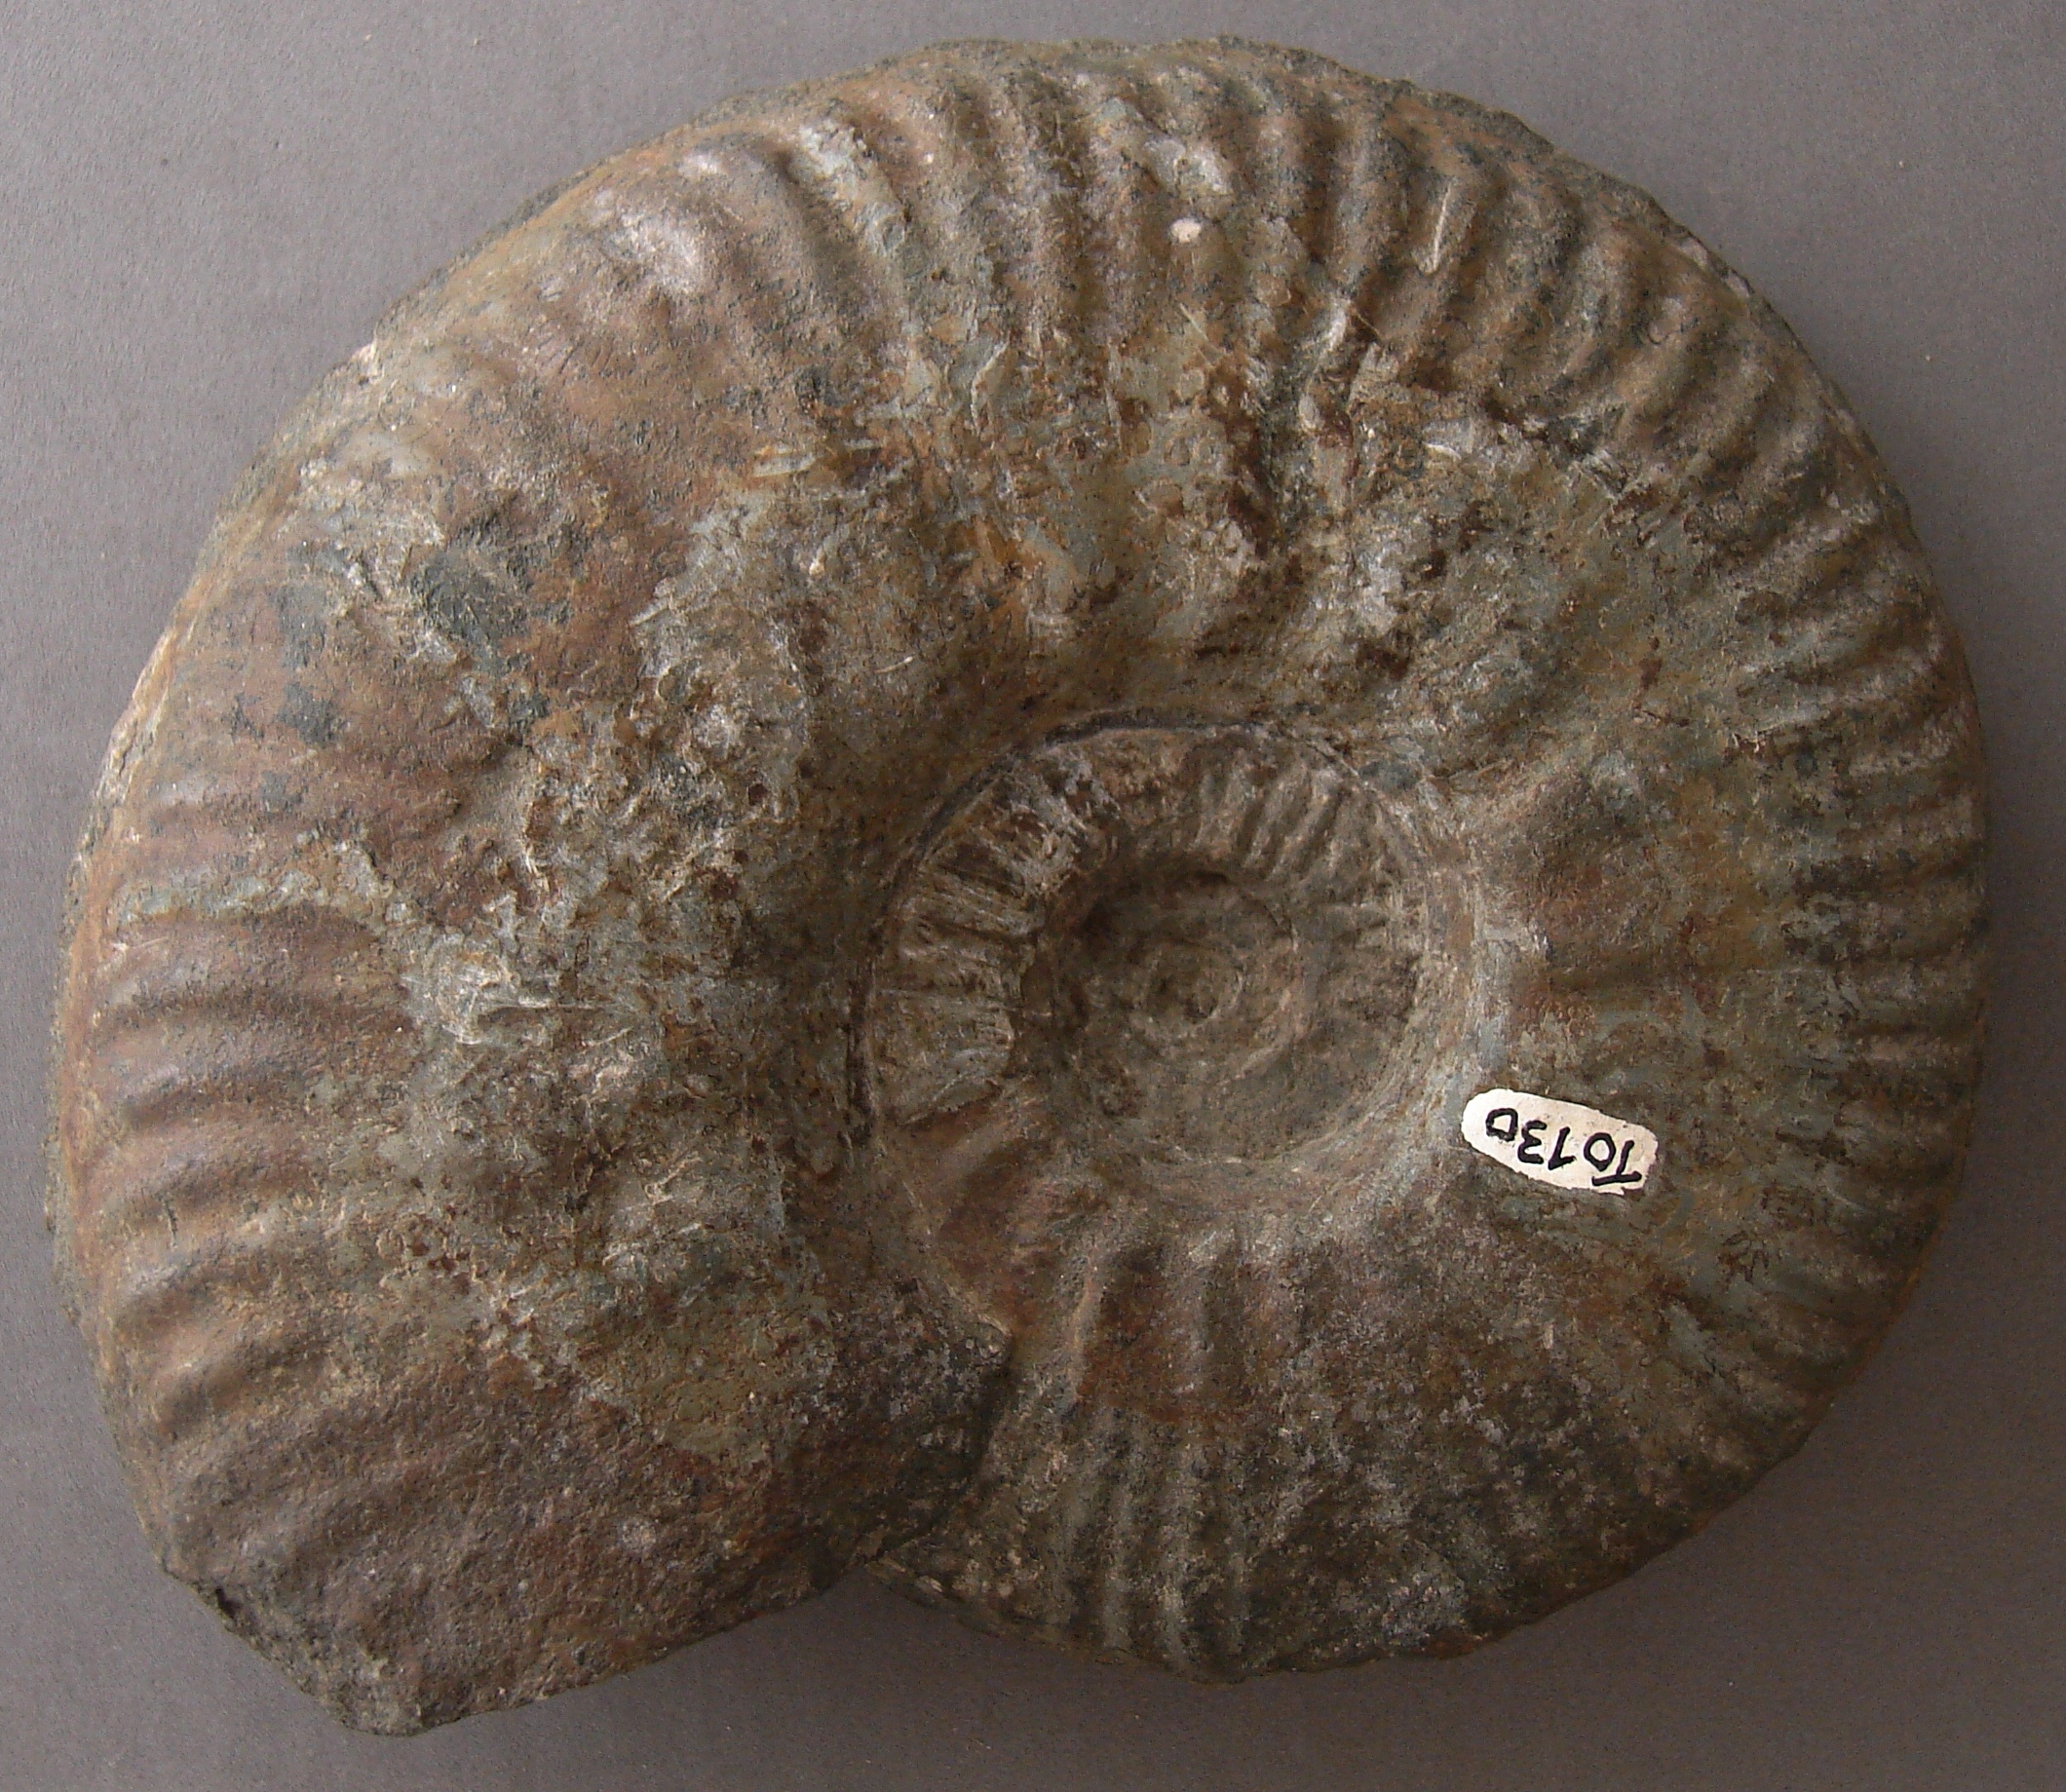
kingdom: Animalia
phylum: Mollusca
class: Cephalopoda
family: Hammatoceratidae
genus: Bredyia
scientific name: Bredyia brancoi
